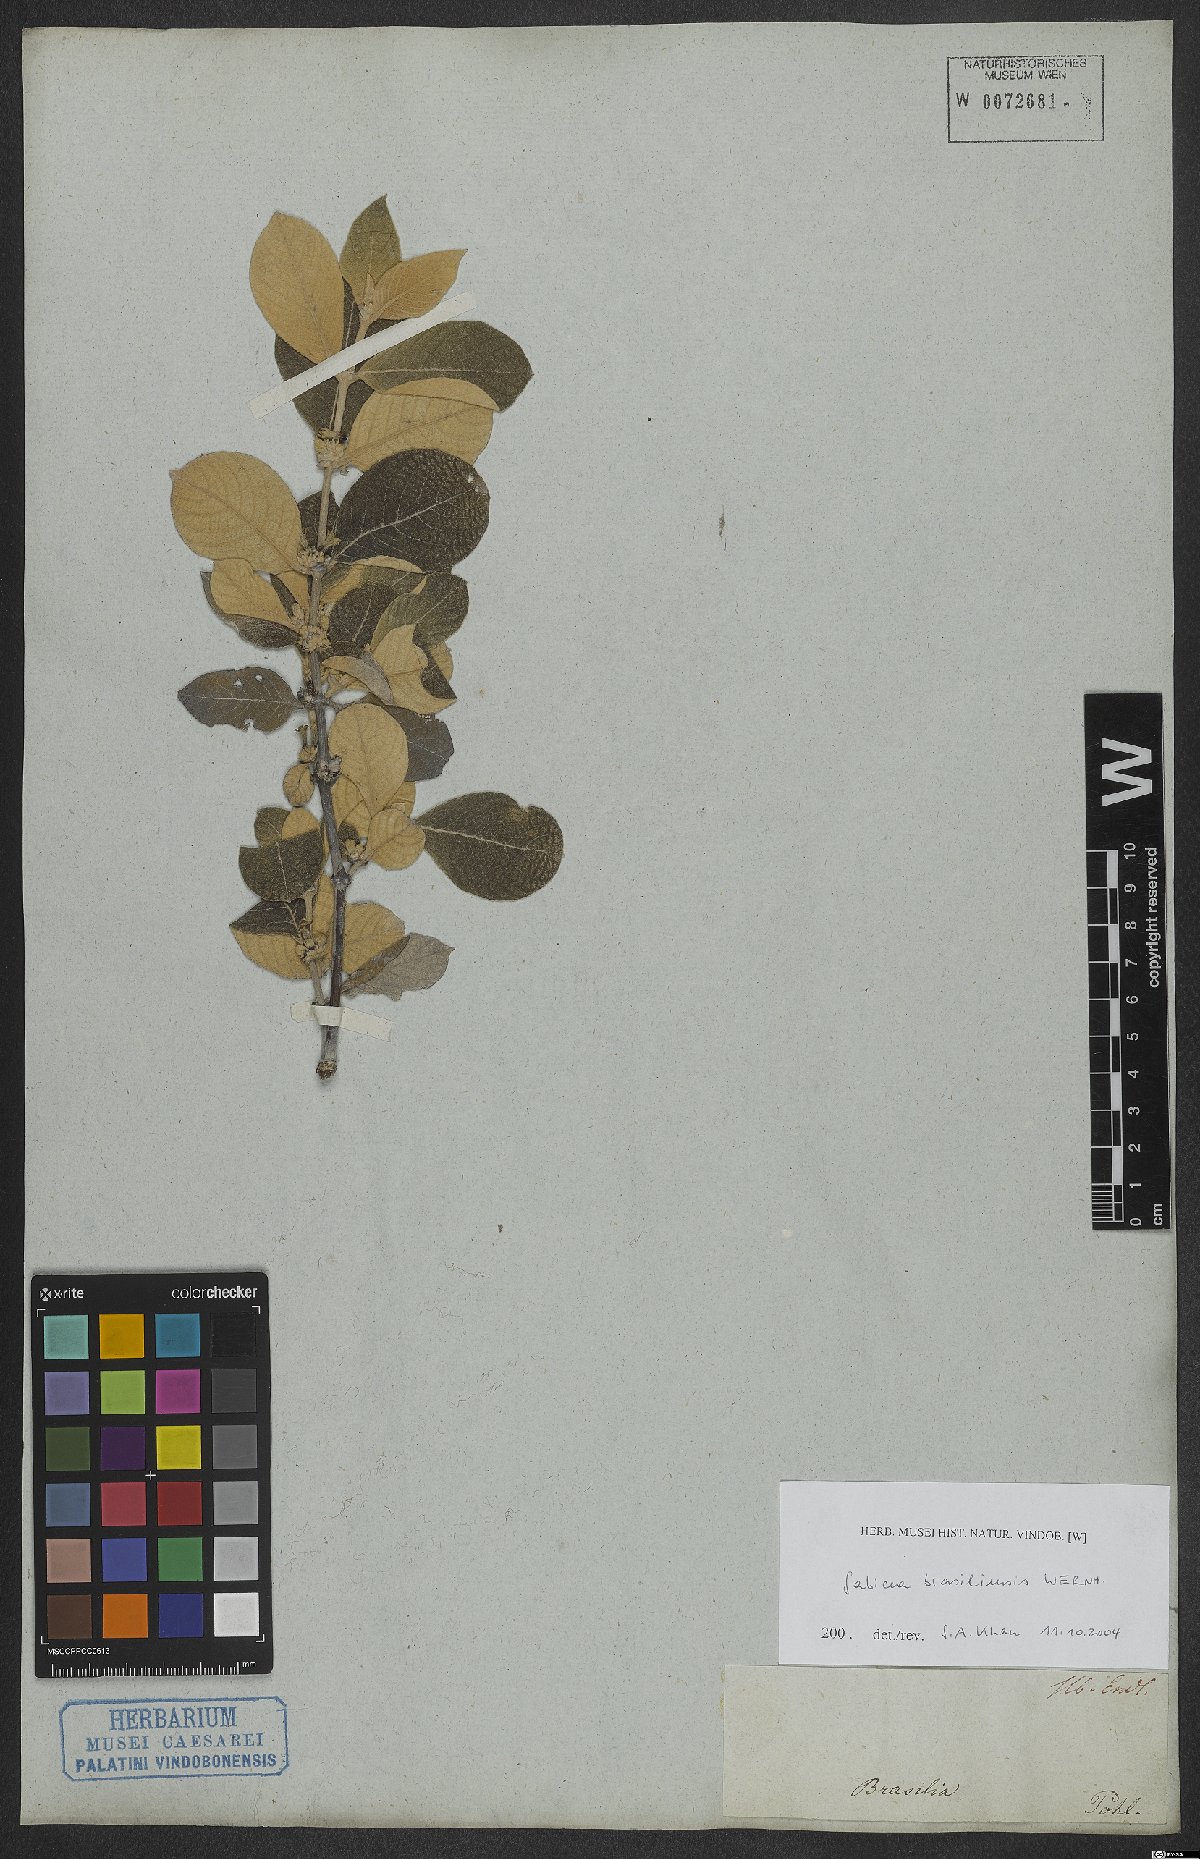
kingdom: Plantae
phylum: Tracheophyta
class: Magnoliopsida
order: Gentianales
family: Rubiaceae
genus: Sabicea
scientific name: Sabicea brasiliensis
